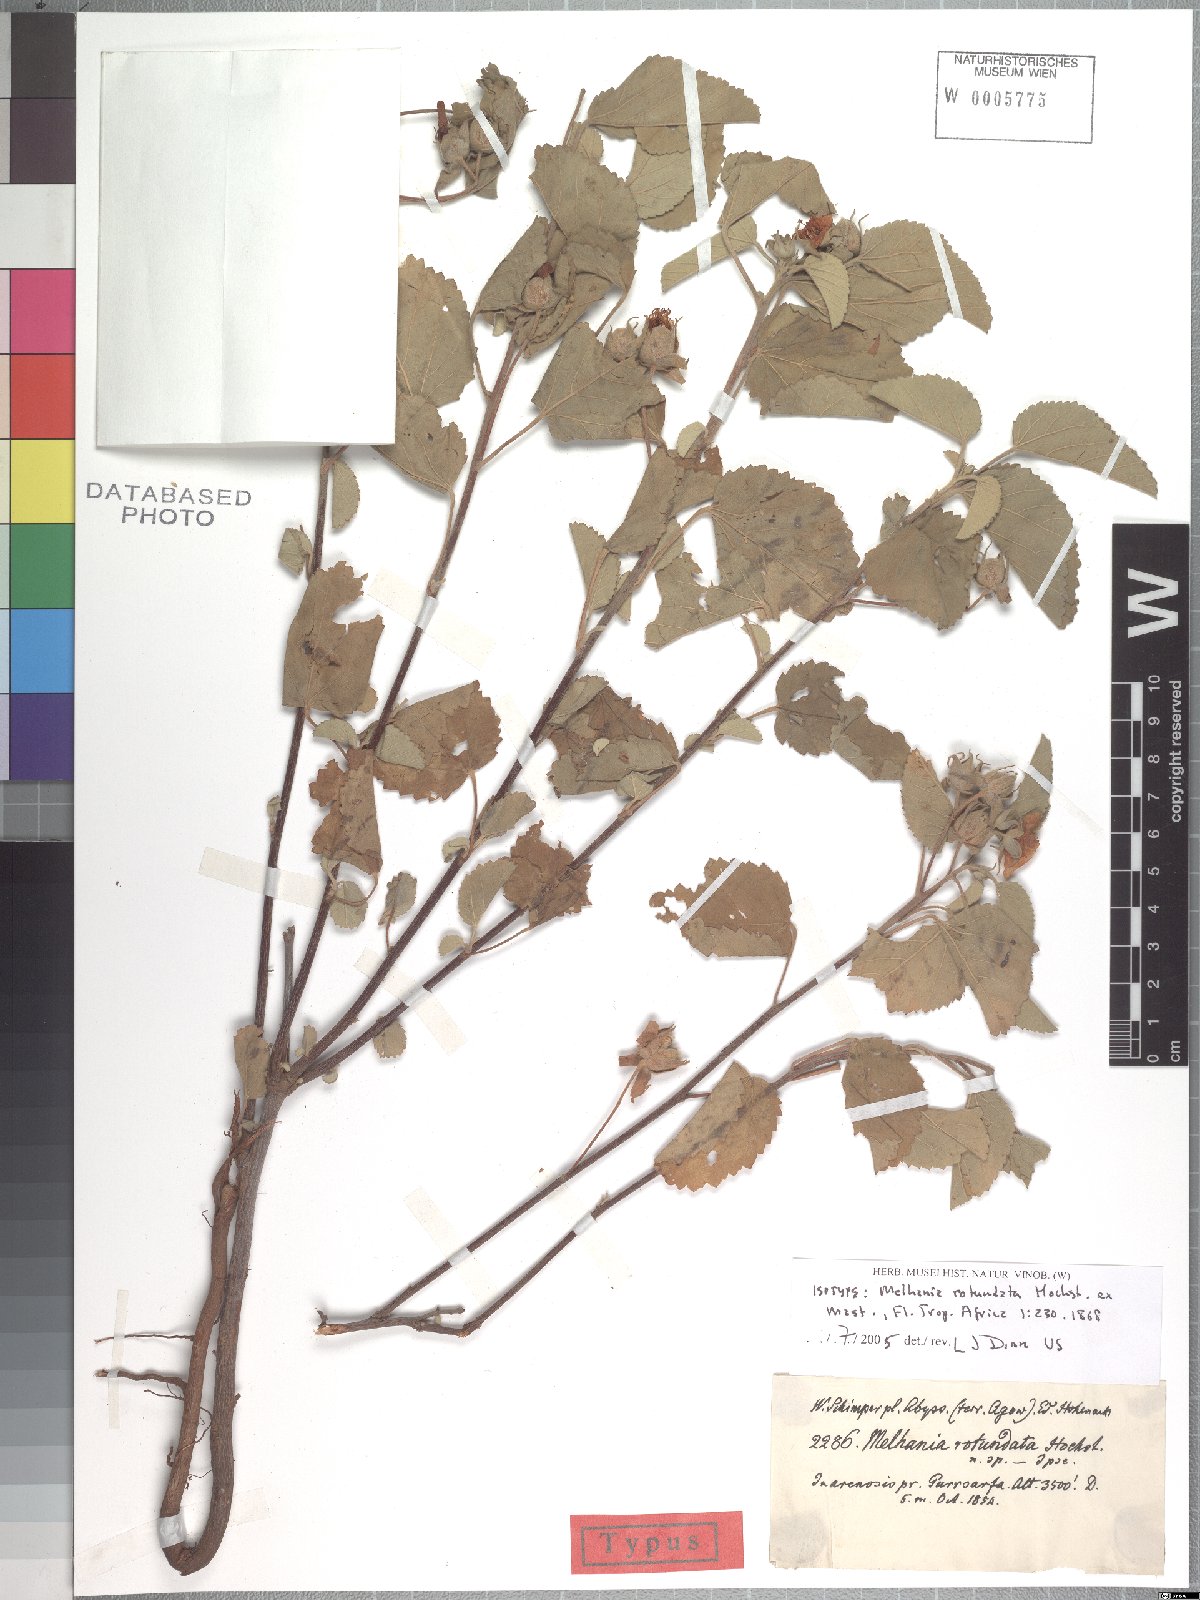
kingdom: Plantae
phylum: Tracheophyta
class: Magnoliopsida
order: Malvales
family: Malvaceae
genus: Melhania
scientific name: Melhania rotundata
